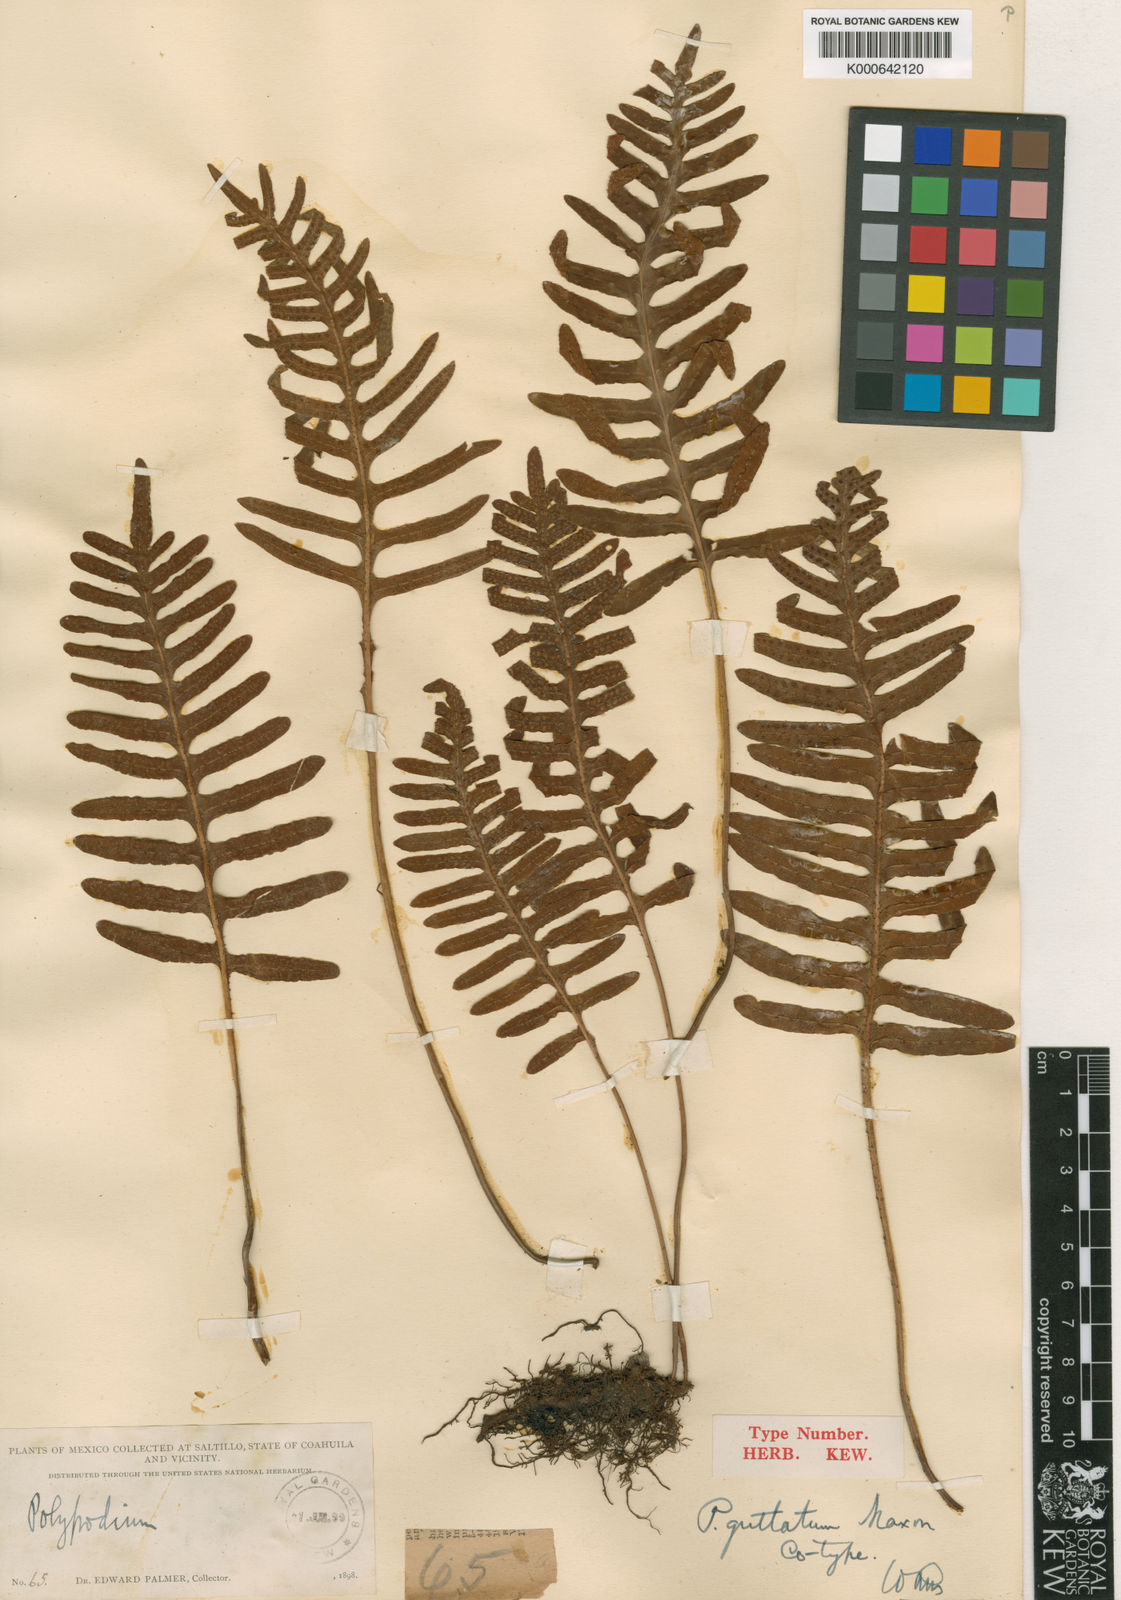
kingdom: Plantae
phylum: Tracheophyta
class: Polypodiopsida
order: Polypodiales
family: Polypodiaceae
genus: Pleopeltis
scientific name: Pleopeltis guttata
